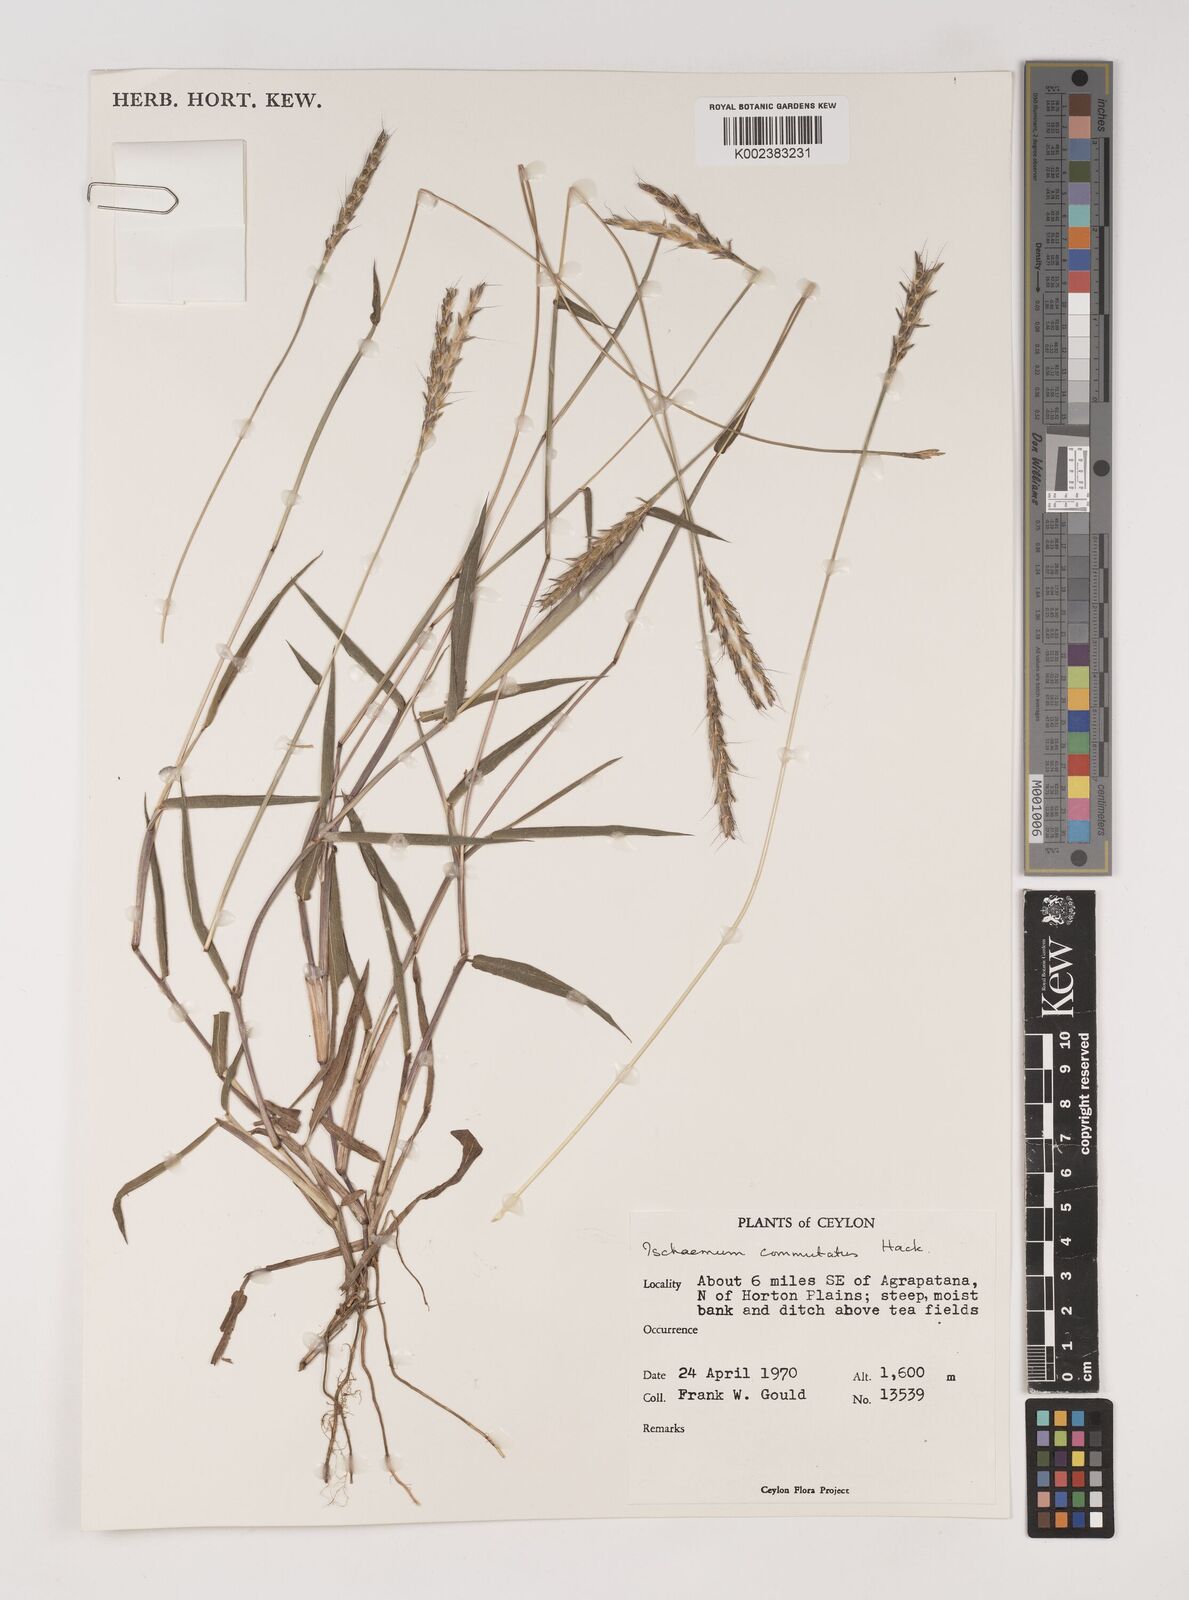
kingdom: Plantae
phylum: Tracheophyta
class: Liliopsida
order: Poales
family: Poaceae
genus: Ischaemum
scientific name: Ischaemum commutatum
